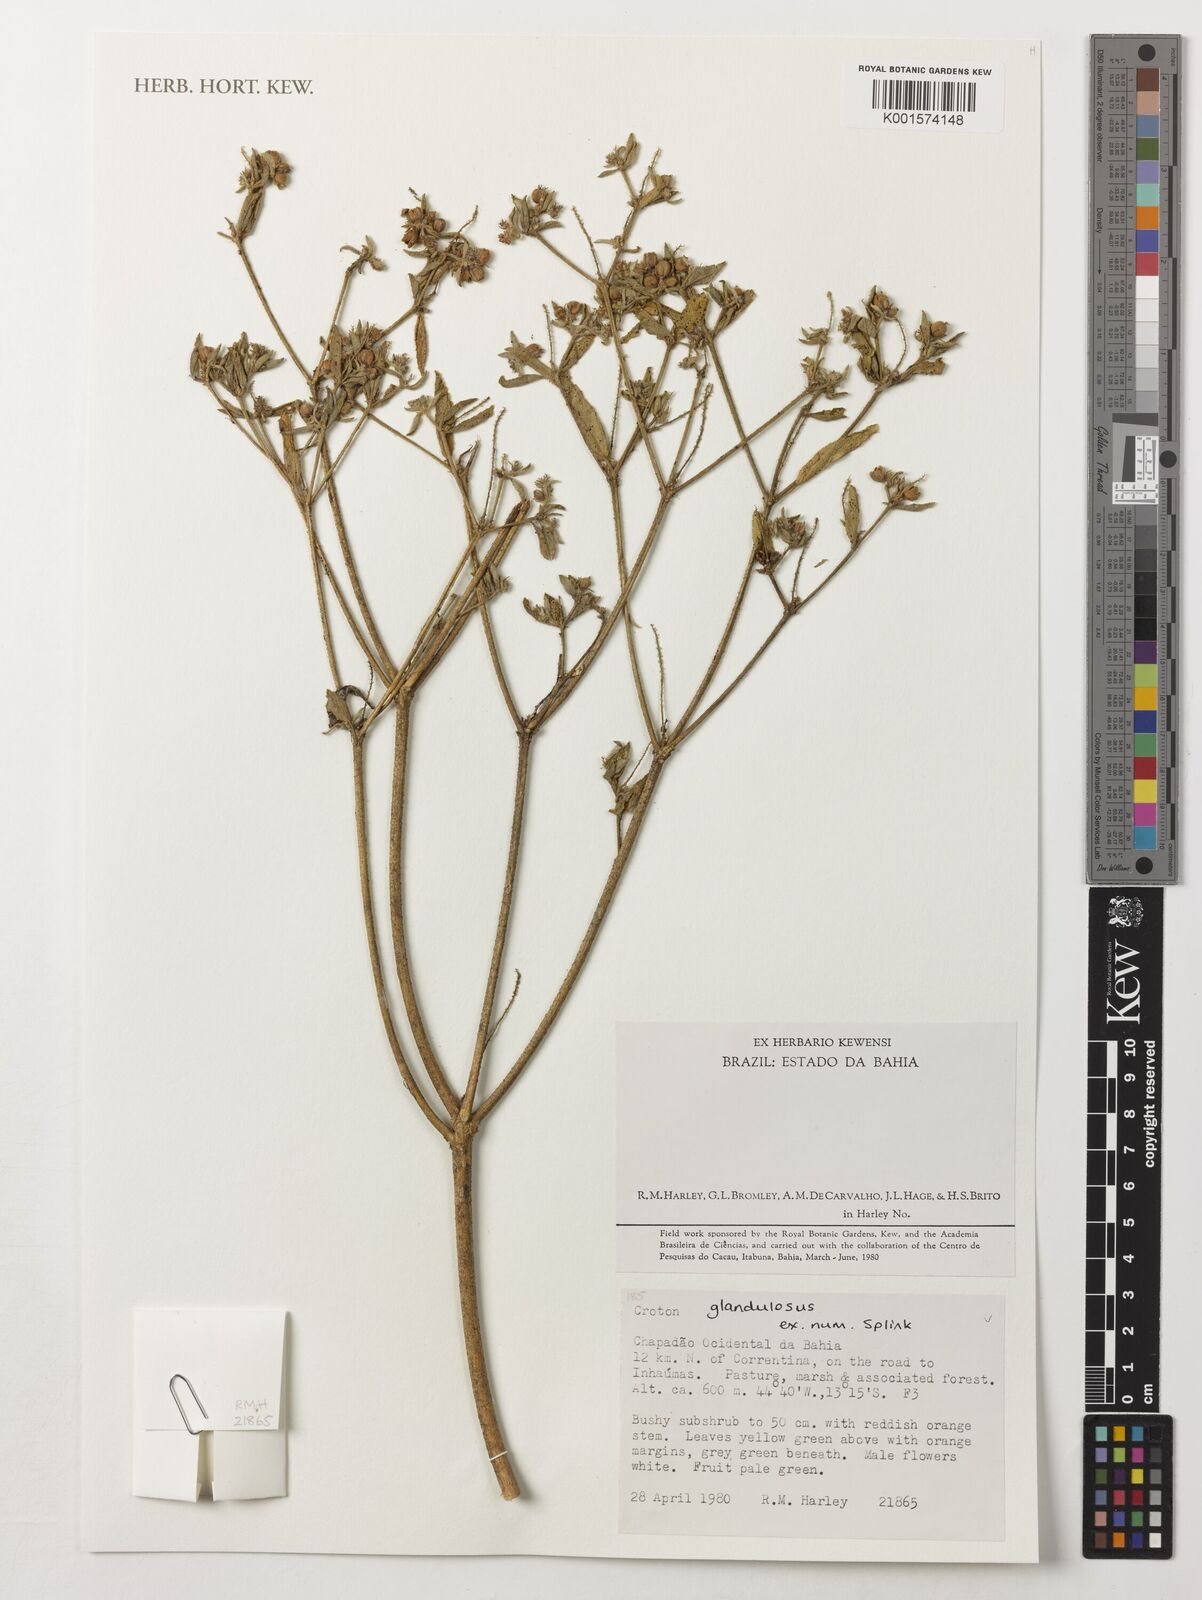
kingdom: Plantae
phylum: Tracheophyta
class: Magnoliopsida
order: Malpighiales
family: Euphorbiaceae
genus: Croton
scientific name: Croton glandulosus
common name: Tropic croton
